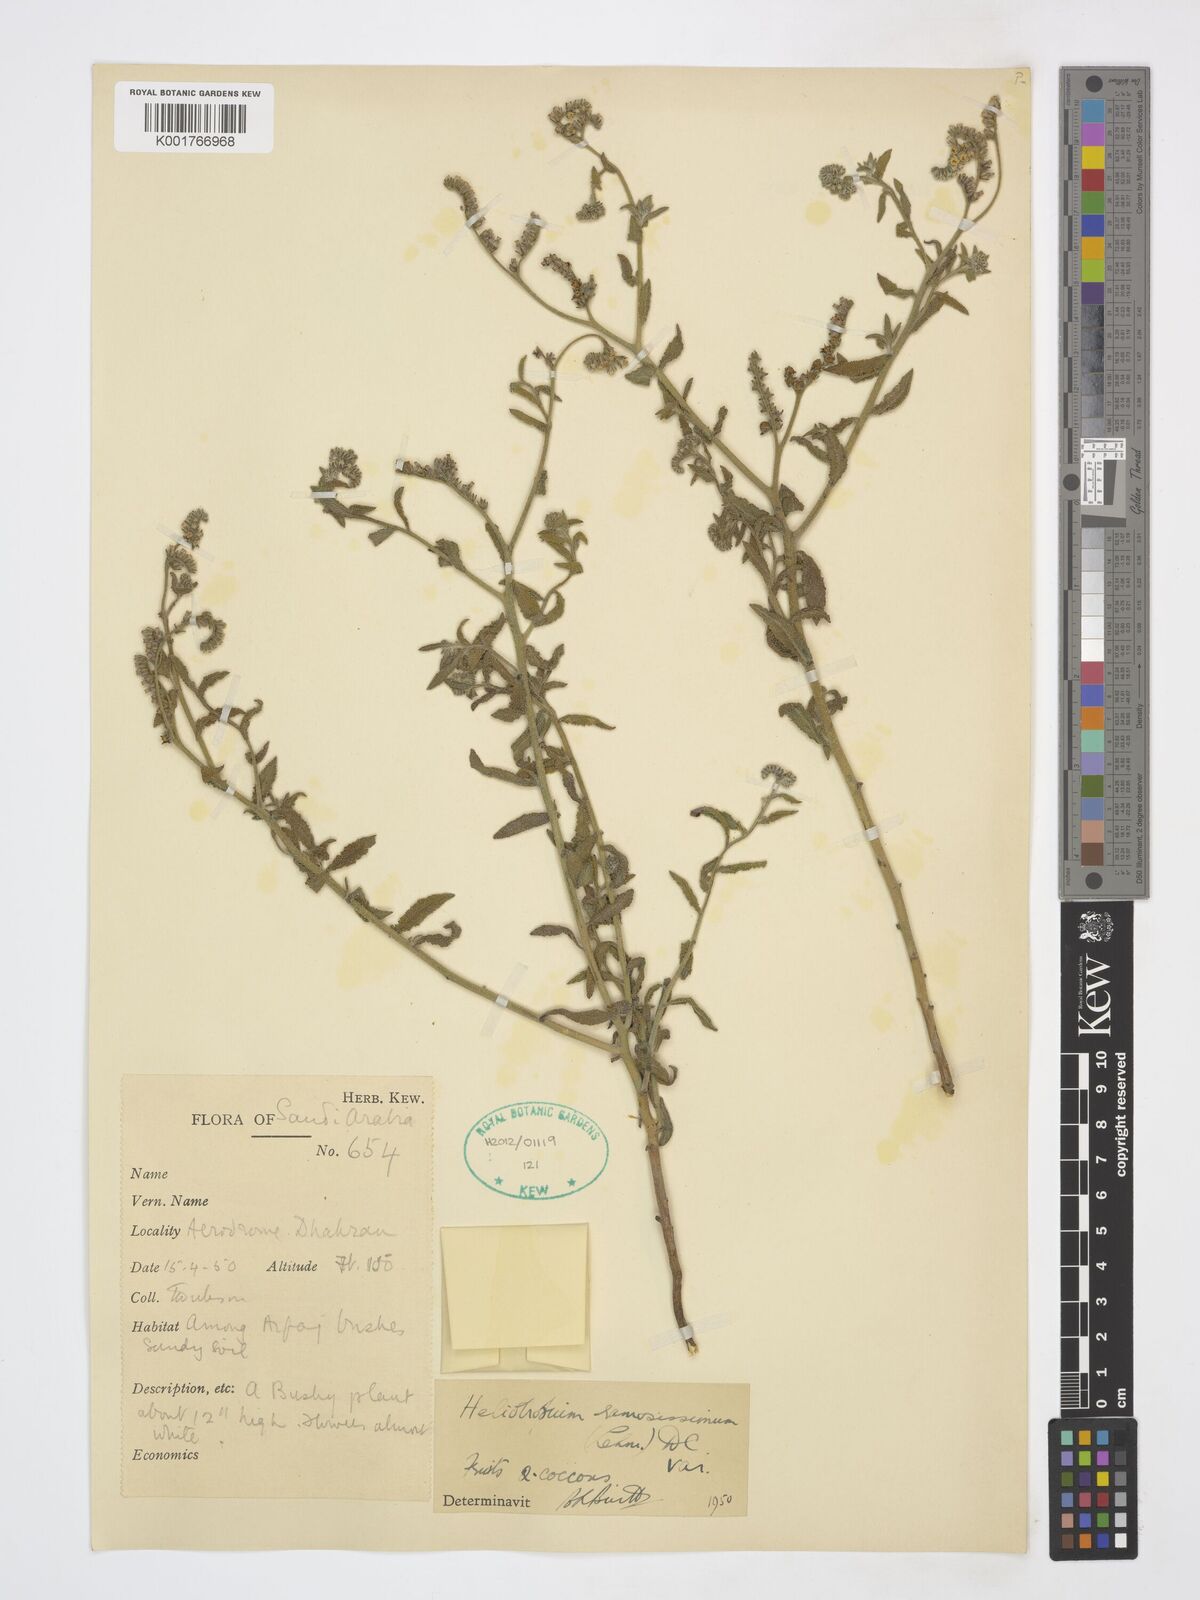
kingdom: Plantae
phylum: Tracheophyta
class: Magnoliopsida
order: Boraginales
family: Heliotropiaceae
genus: Heliotropium
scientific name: Heliotropium ramosissimum
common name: Wavy heliotrope
